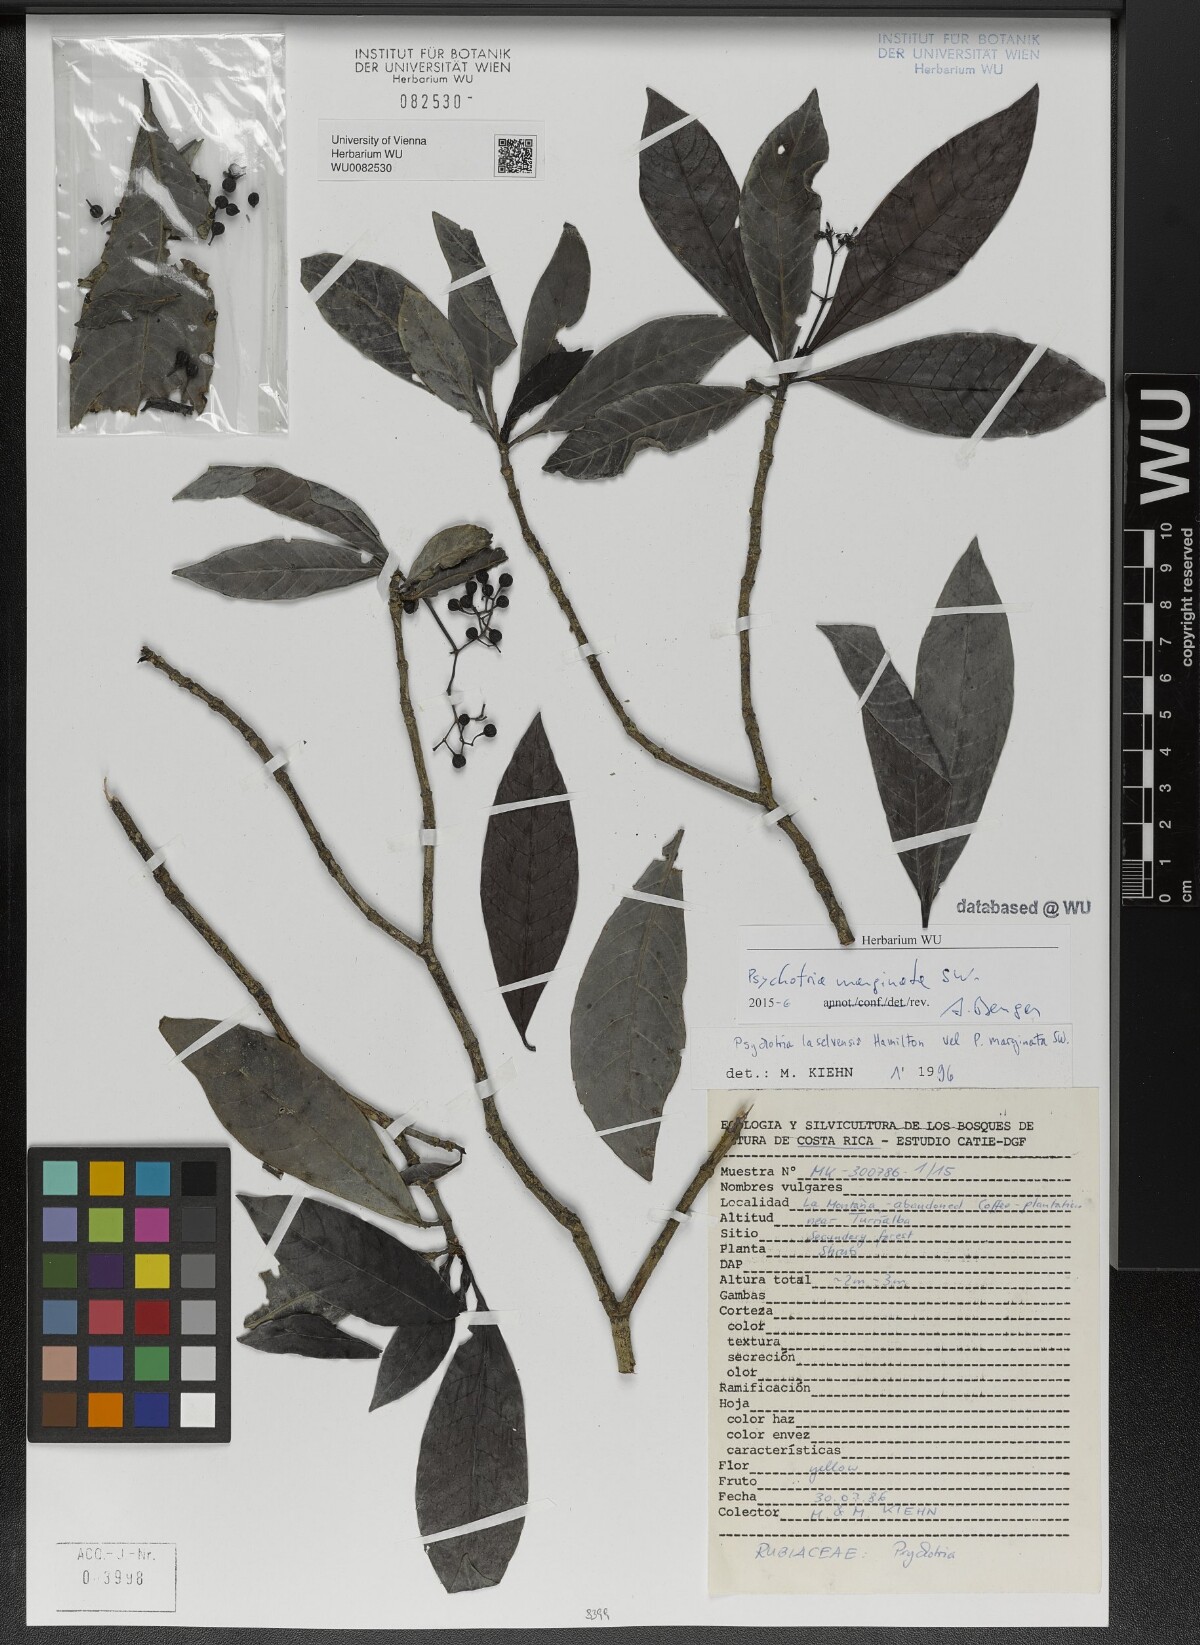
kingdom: Plantae
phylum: Tracheophyta
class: Magnoliopsida
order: Gentianales
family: Rubiaceae
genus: Psychotria
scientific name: Psychotria marginata
